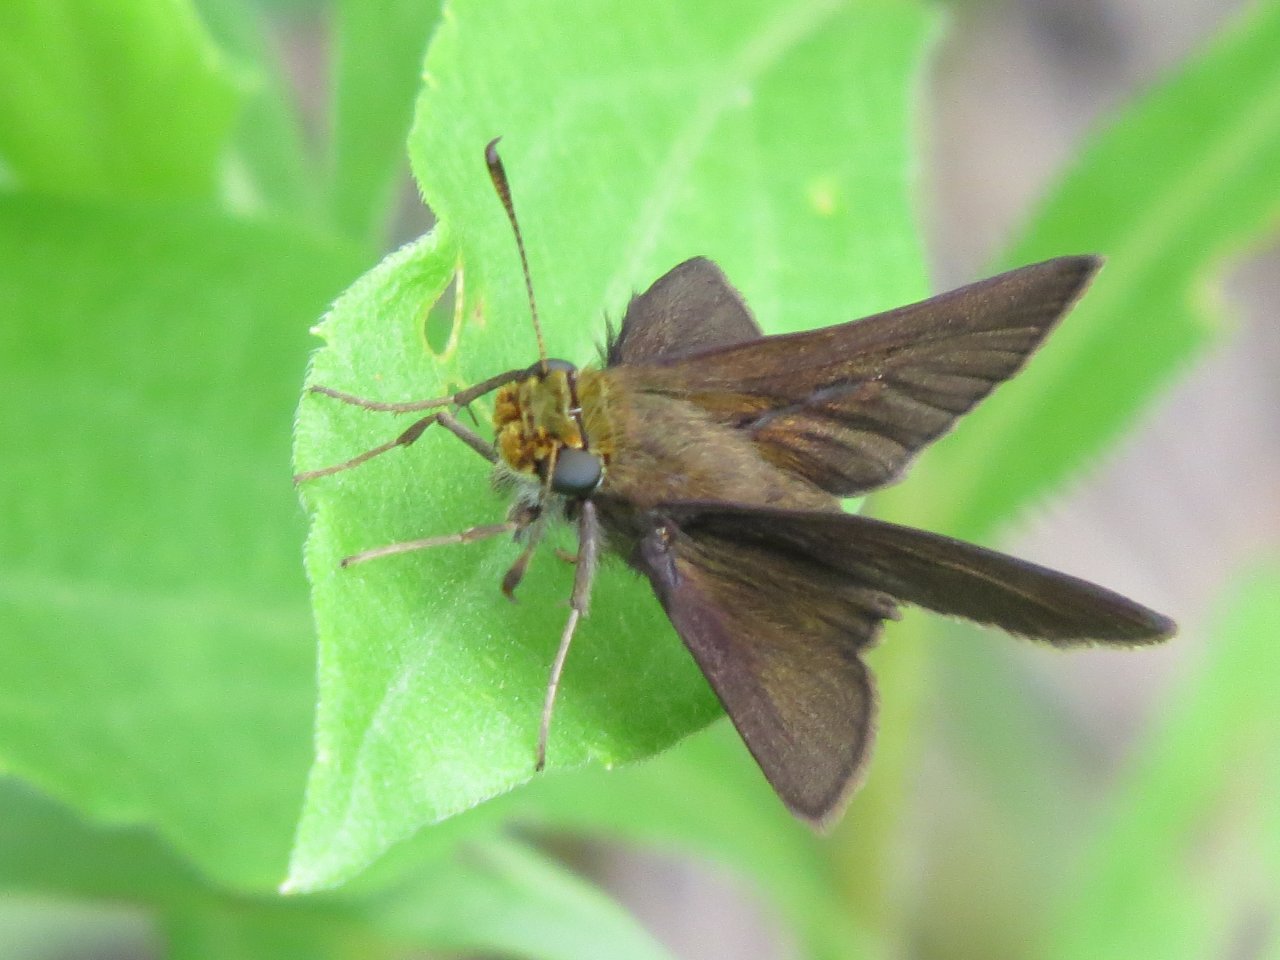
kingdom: Animalia
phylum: Arthropoda
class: Insecta
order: Lepidoptera
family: Hesperiidae
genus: Euphyes
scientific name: Euphyes vestris
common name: Dun Skipper
